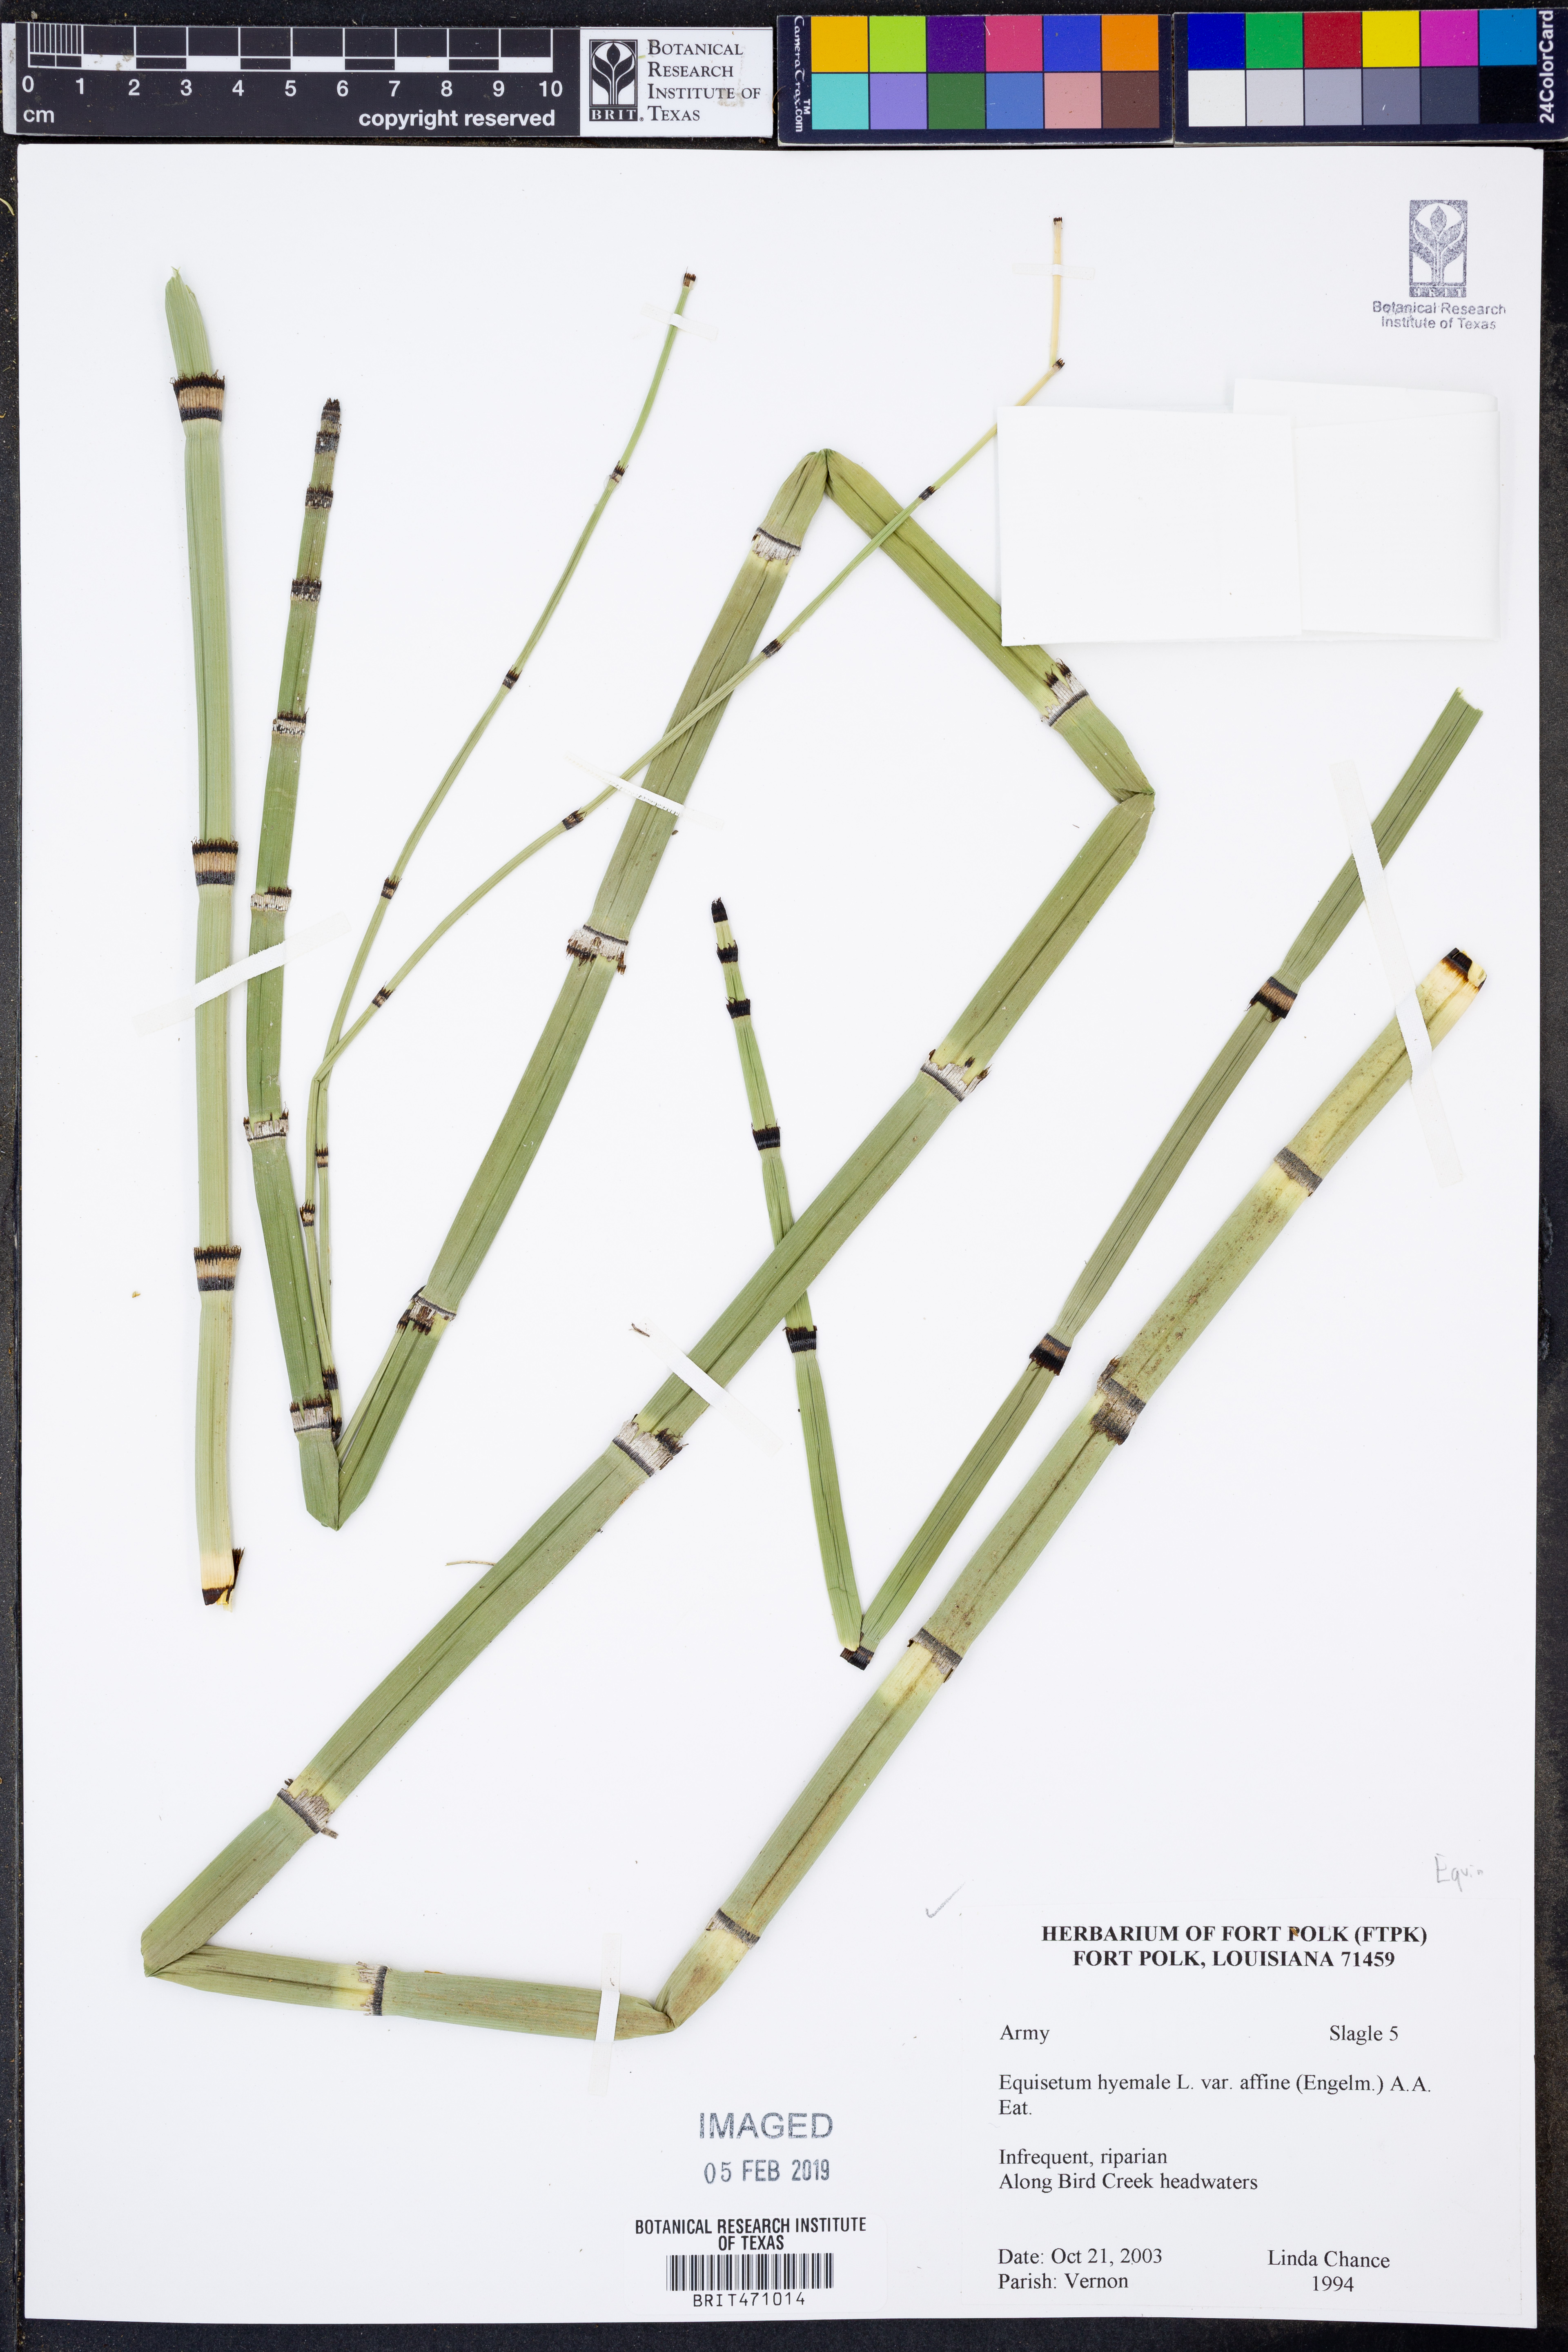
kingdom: Plantae
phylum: Tracheophyta
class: Polypodiopsida
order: Equisetales
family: Equisetaceae
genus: Equisetum
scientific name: Equisetum praealtum
